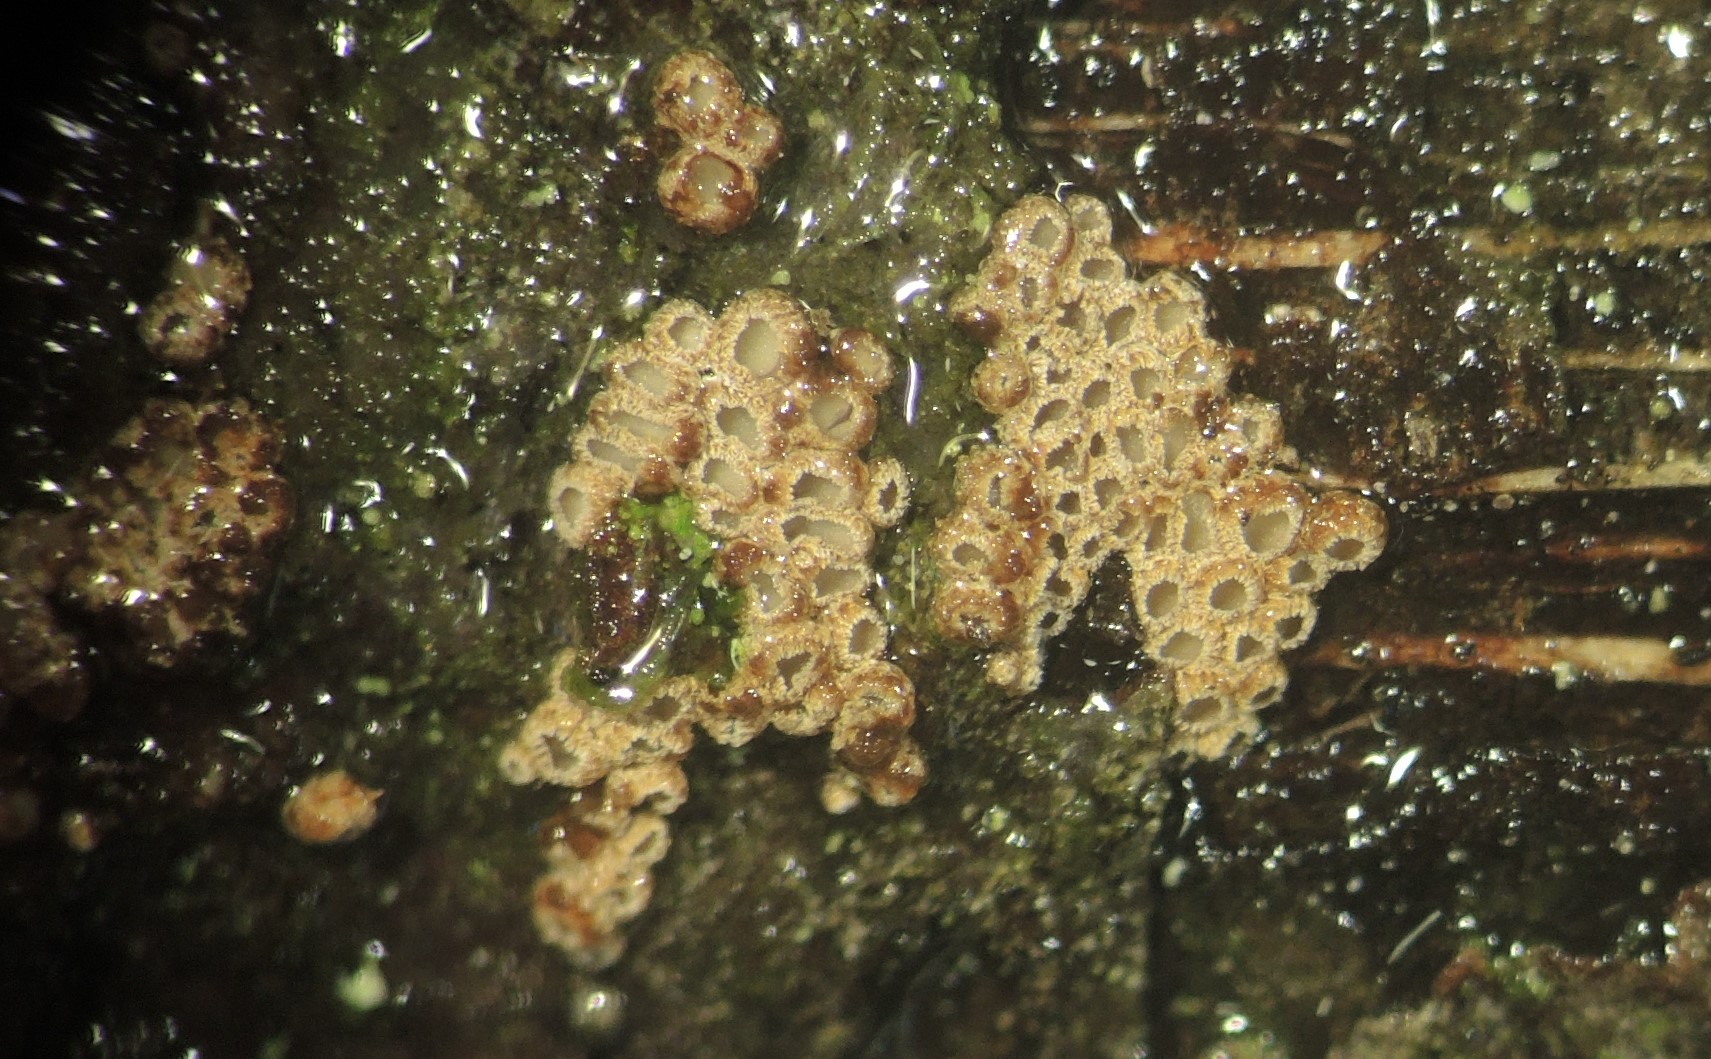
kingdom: Fungi
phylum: Basidiomycota
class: Agaricomycetes
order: Agaricales
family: Niaceae
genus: Merismodes
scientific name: Merismodes anomala
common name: almindelig læderskål
